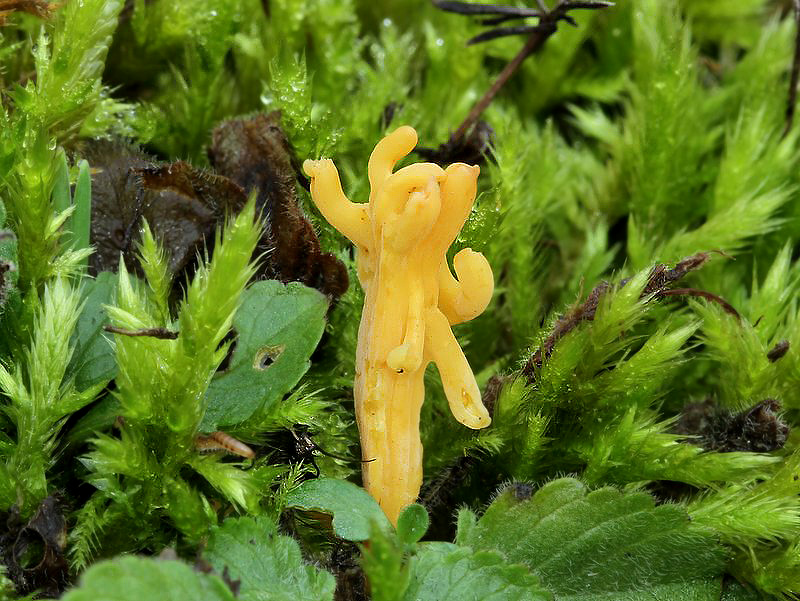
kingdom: Fungi
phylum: Basidiomycota
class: Agaricomycetes
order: Agaricales
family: Clavariaceae
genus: Clavulinopsis
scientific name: Clavulinopsis corniculata
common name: eng-køllesvamp
